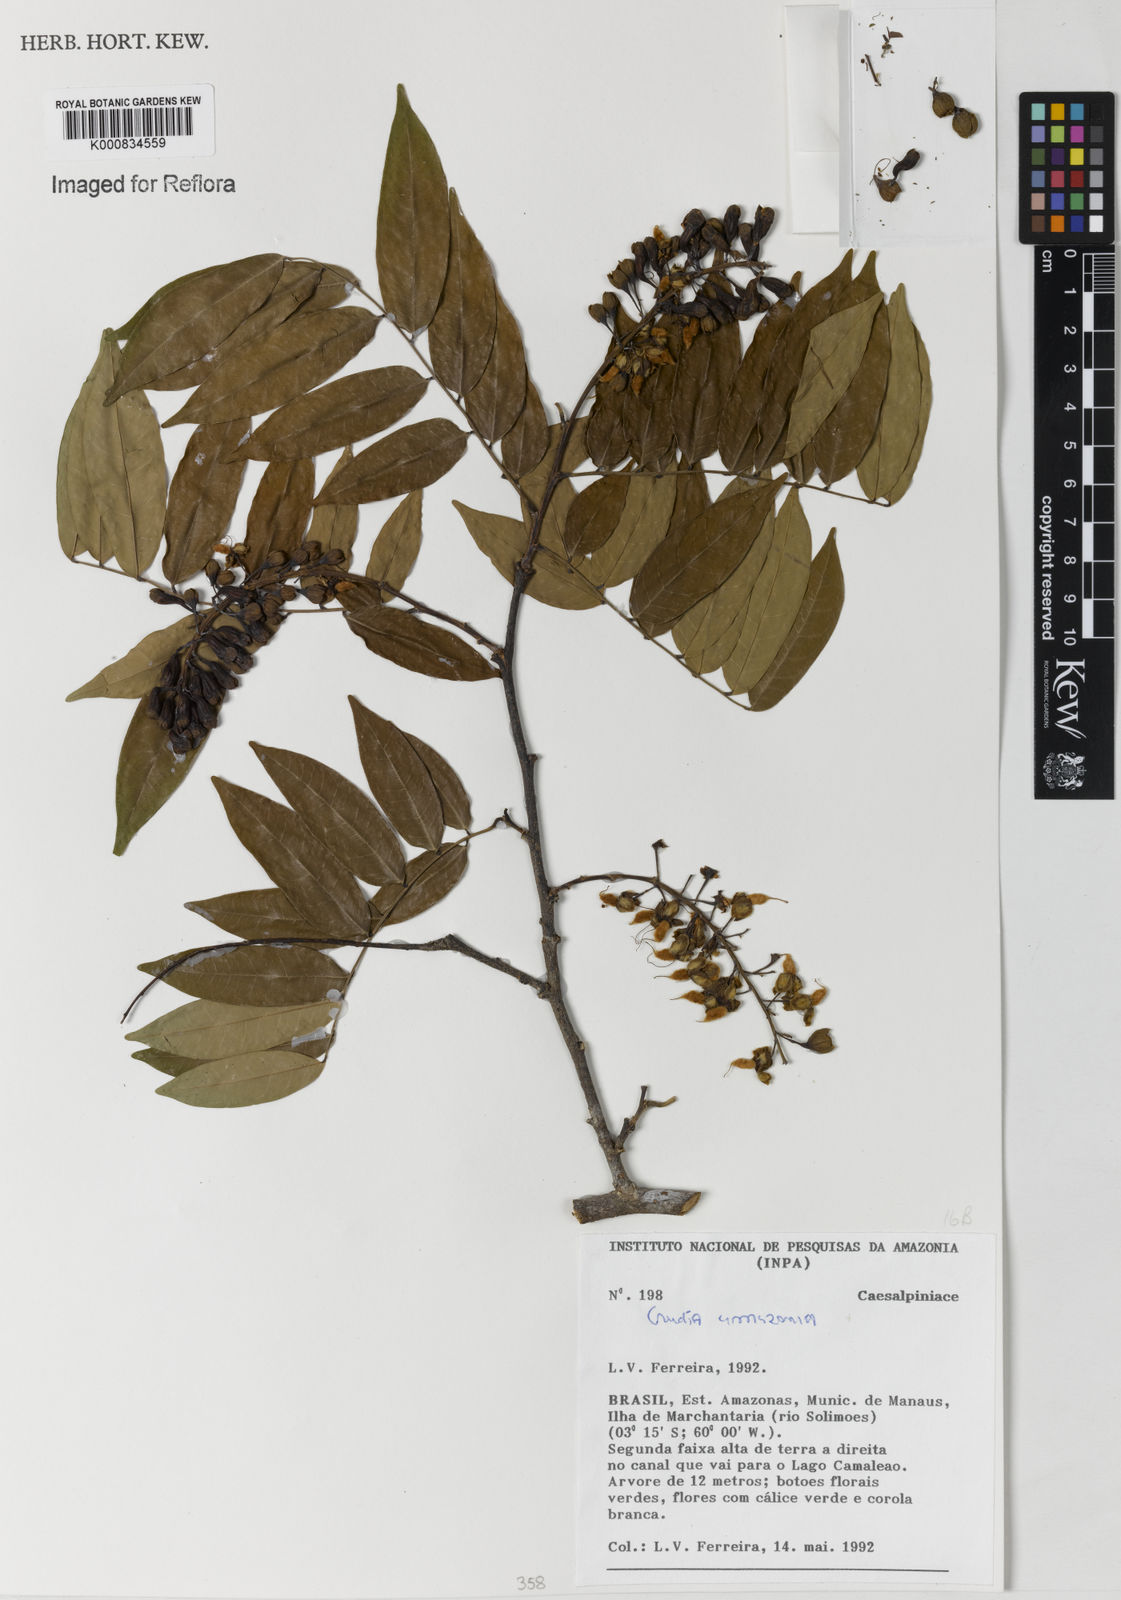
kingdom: Plantae
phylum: Tracheophyta
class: Magnoliopsida
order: Fabales
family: Fabaceae
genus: Crudia
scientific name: Crudia
